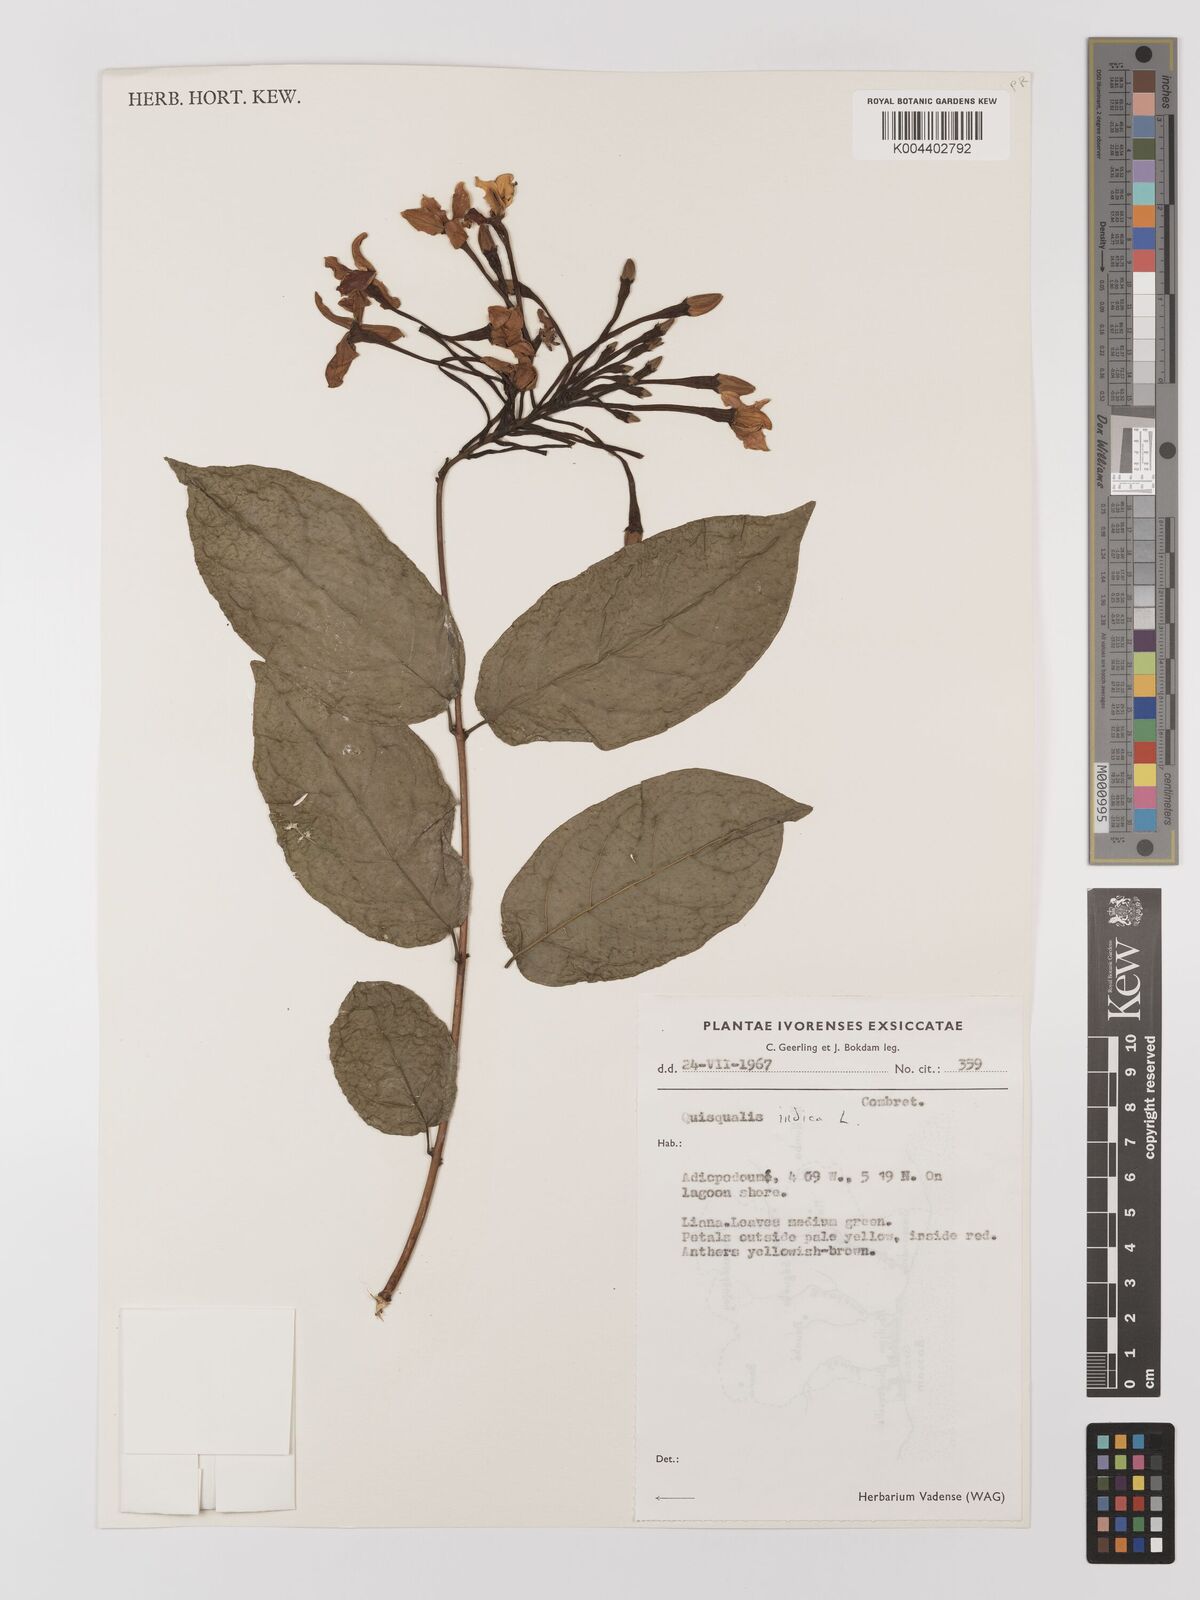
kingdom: Plantae
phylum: Tracheophyta
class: Magnoliopsida
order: Myrtales
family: Combretaceae
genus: Combretum
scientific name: Combretum
